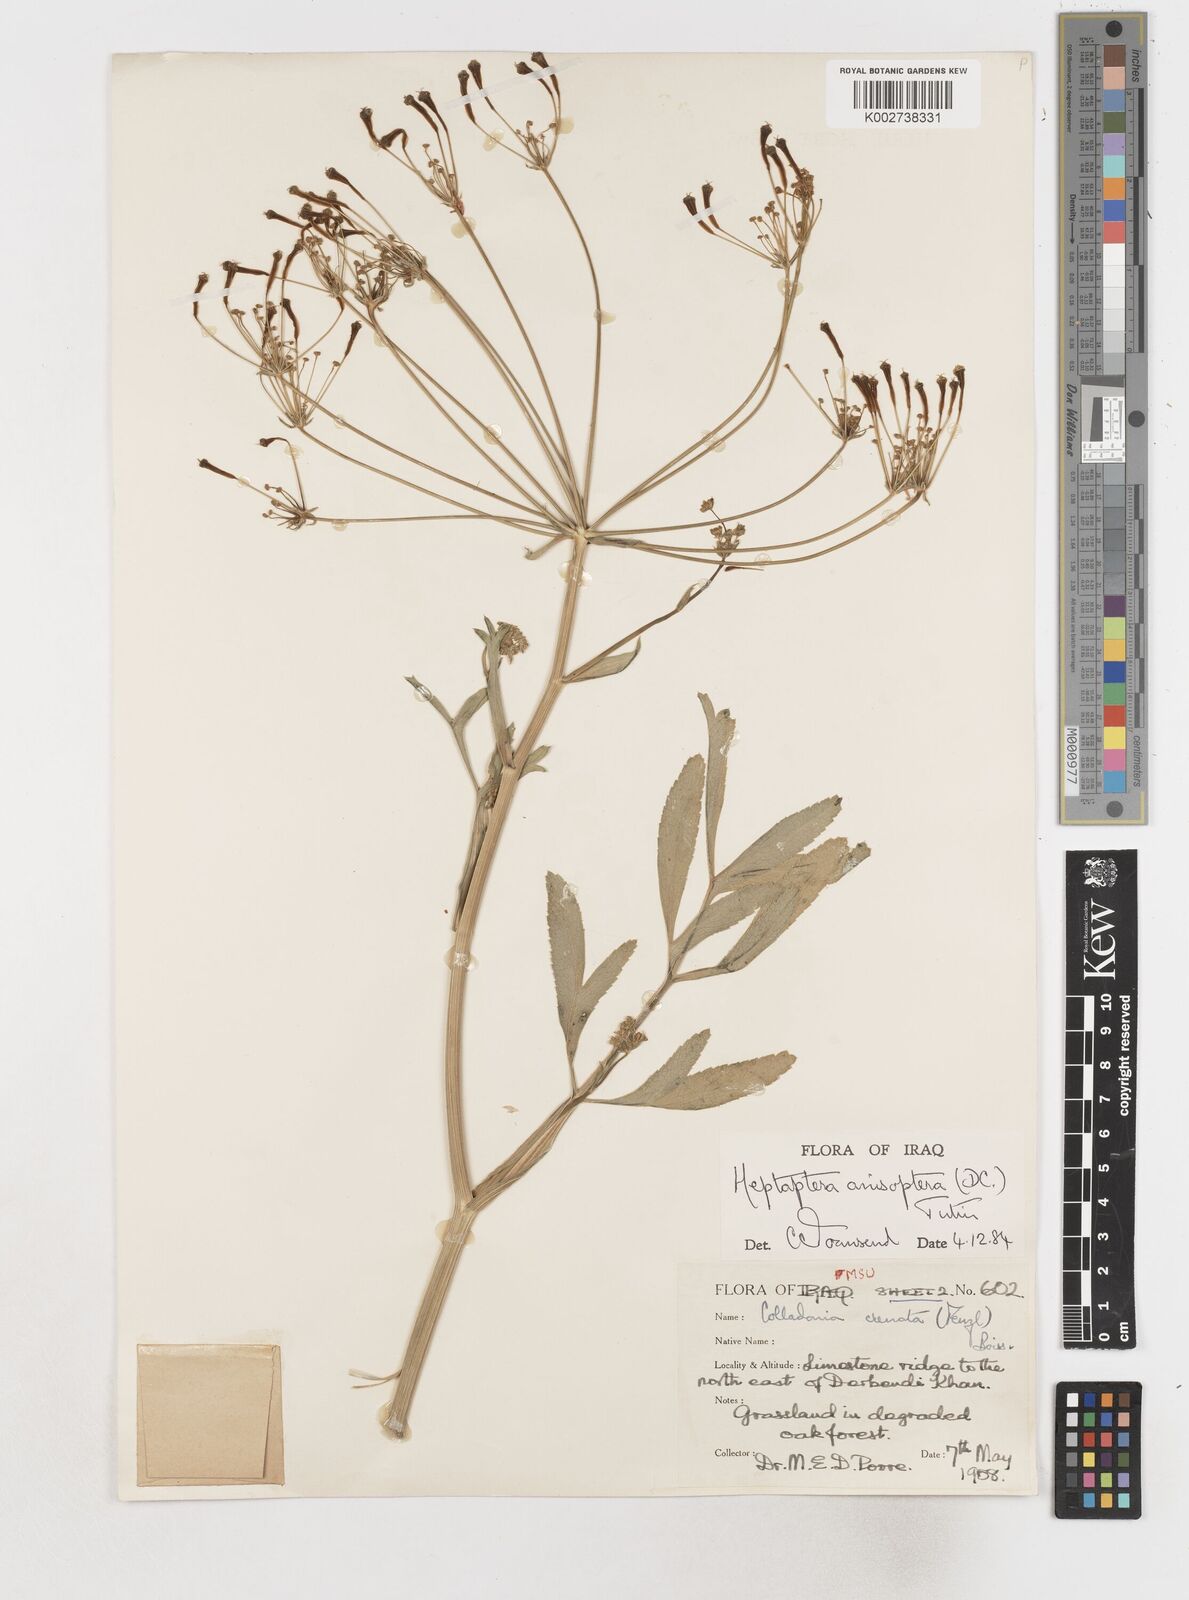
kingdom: Plantae
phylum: Tracheophyta
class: Magnoliopsida
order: Apiales
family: Apiaceae
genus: Heptaptera
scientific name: Heptaptera
